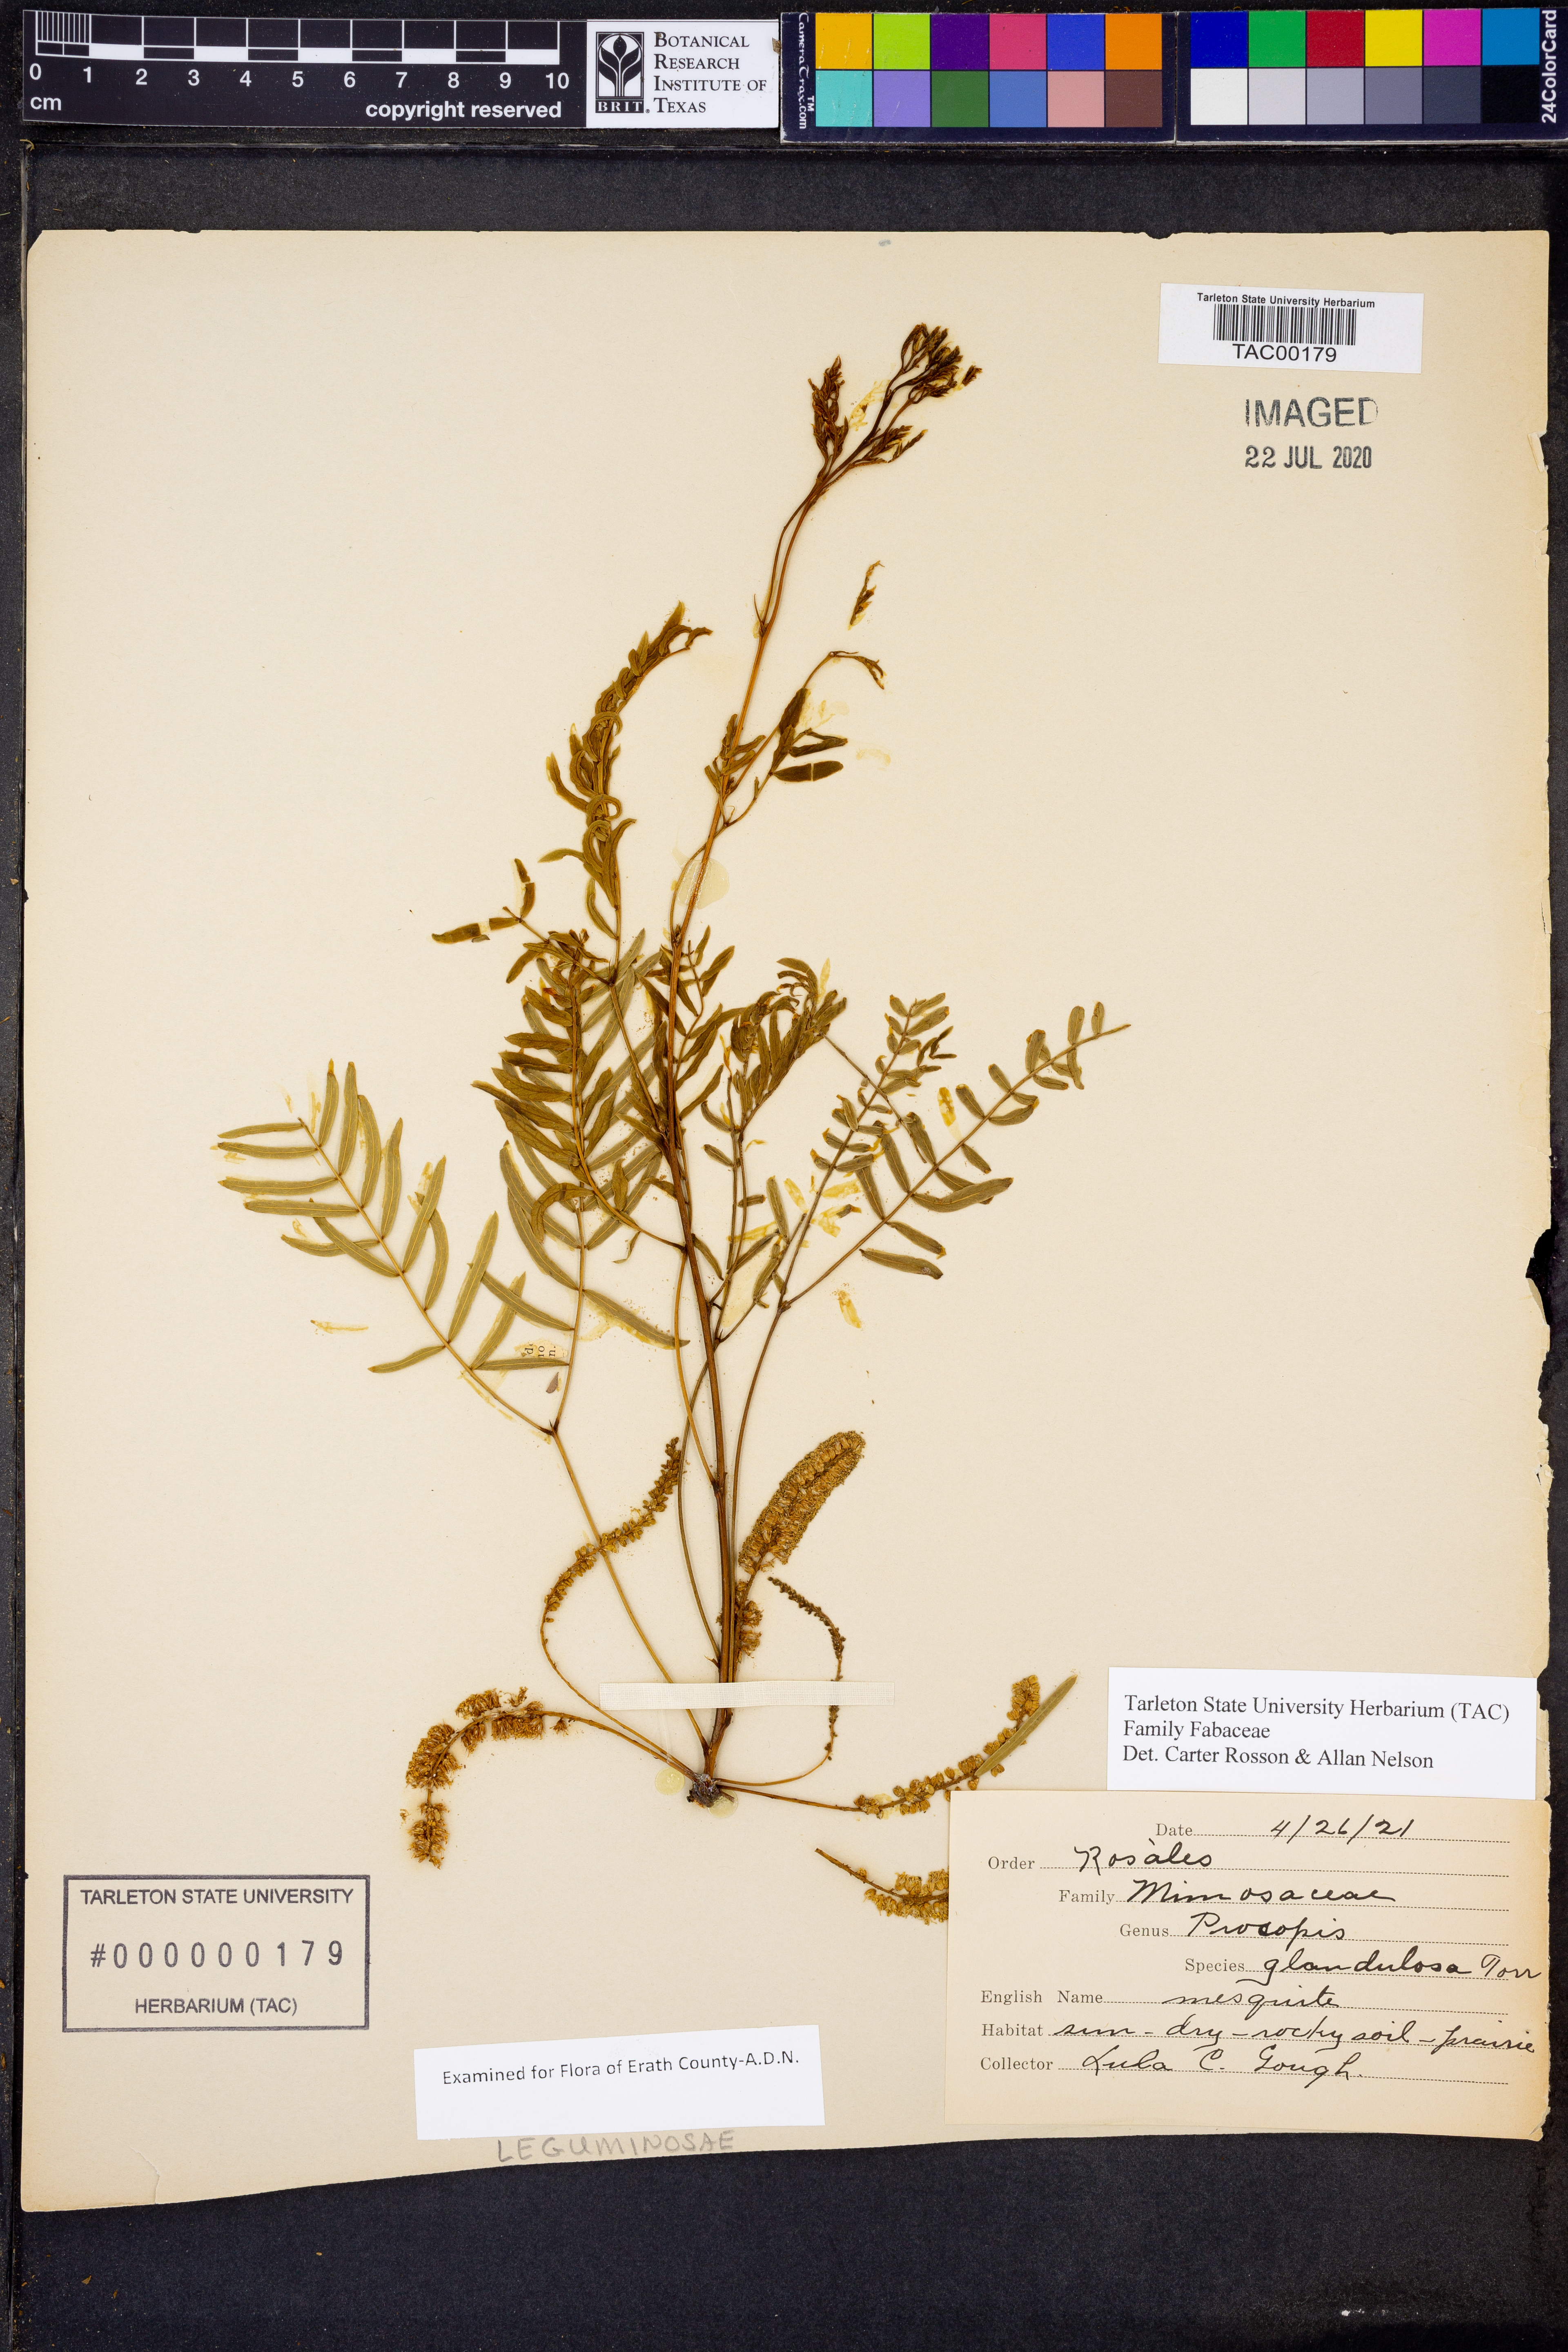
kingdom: Plantae
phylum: Tracheophyta
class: Magnoliopsida
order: Fabales
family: Fabaceae
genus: Prosopis
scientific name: Prosopis glandulosa
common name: Honey mesquite
